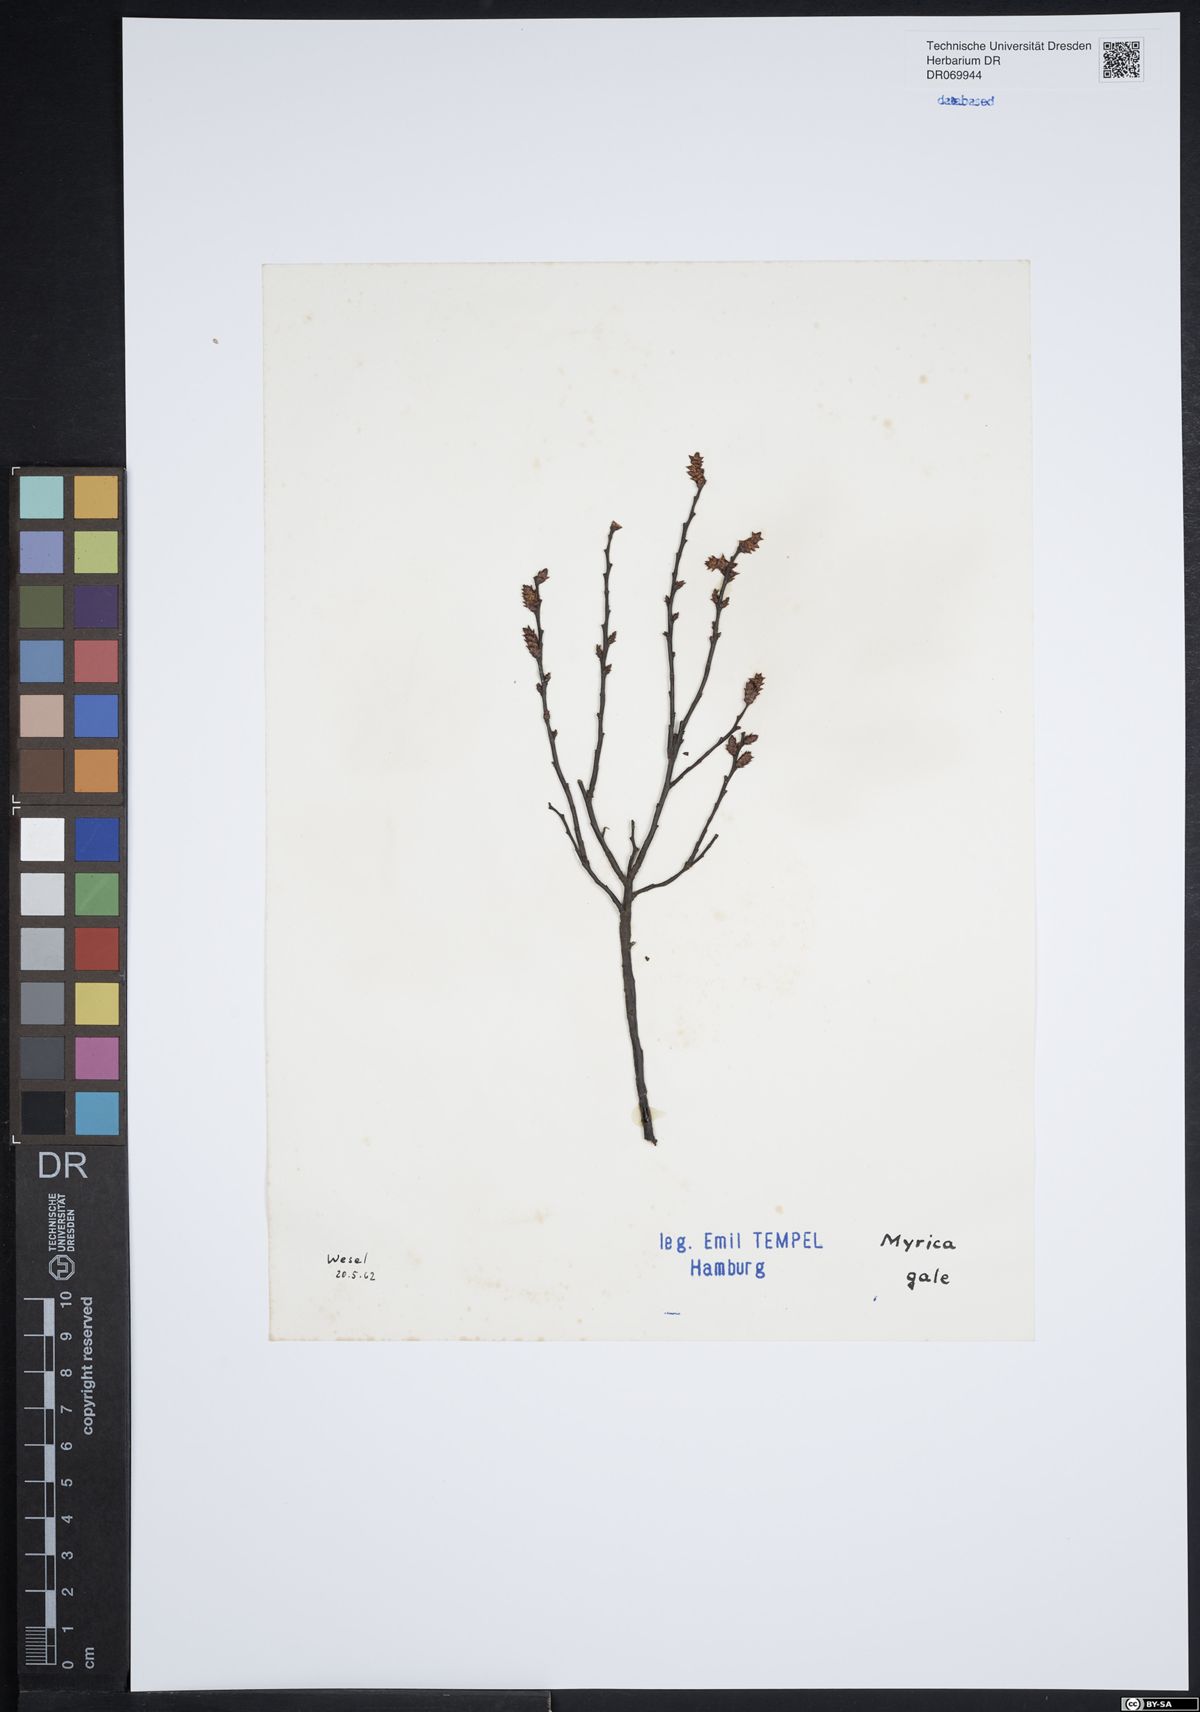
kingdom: Plantae
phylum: Tracheophyta
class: Magnoliopsida
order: Fagales
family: Myricaceae
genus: Myrica
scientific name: Myrica gale
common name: Sweet gale
